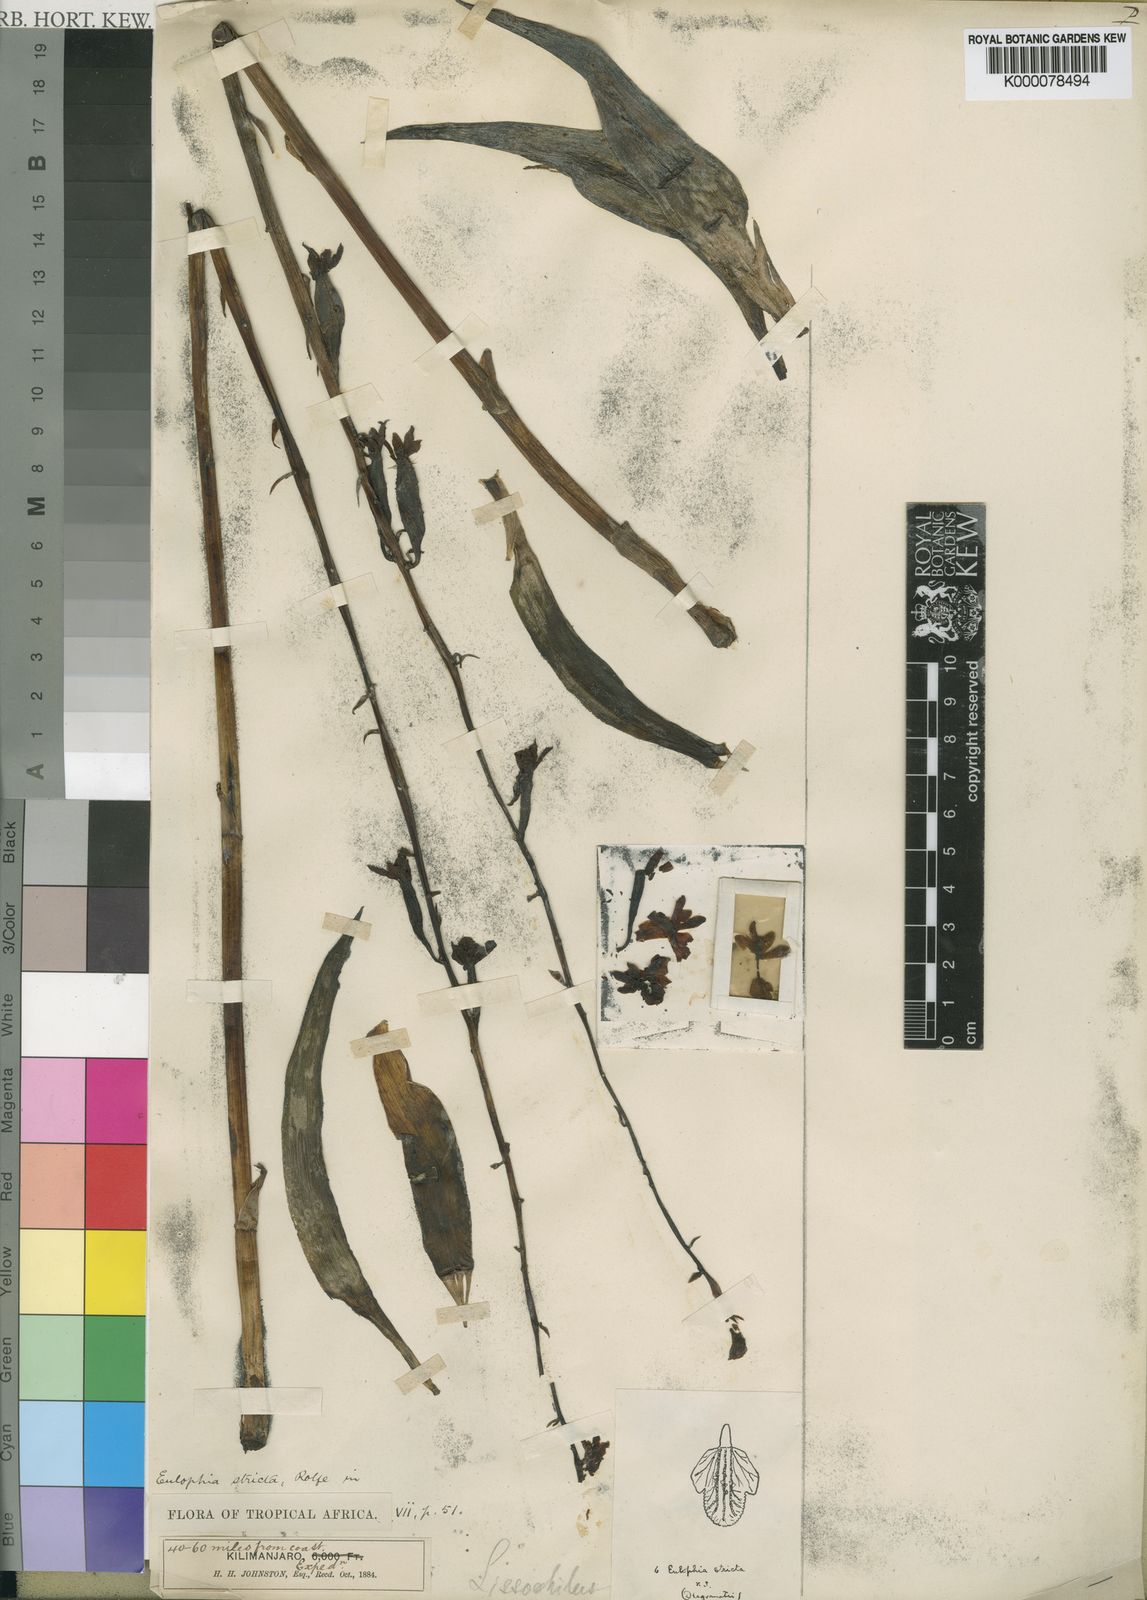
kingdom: Plantae
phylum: Tracheophyta
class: Liliopsida
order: Asparagales
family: Orchidaceae
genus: Eulophia
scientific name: Eulophia stricta
